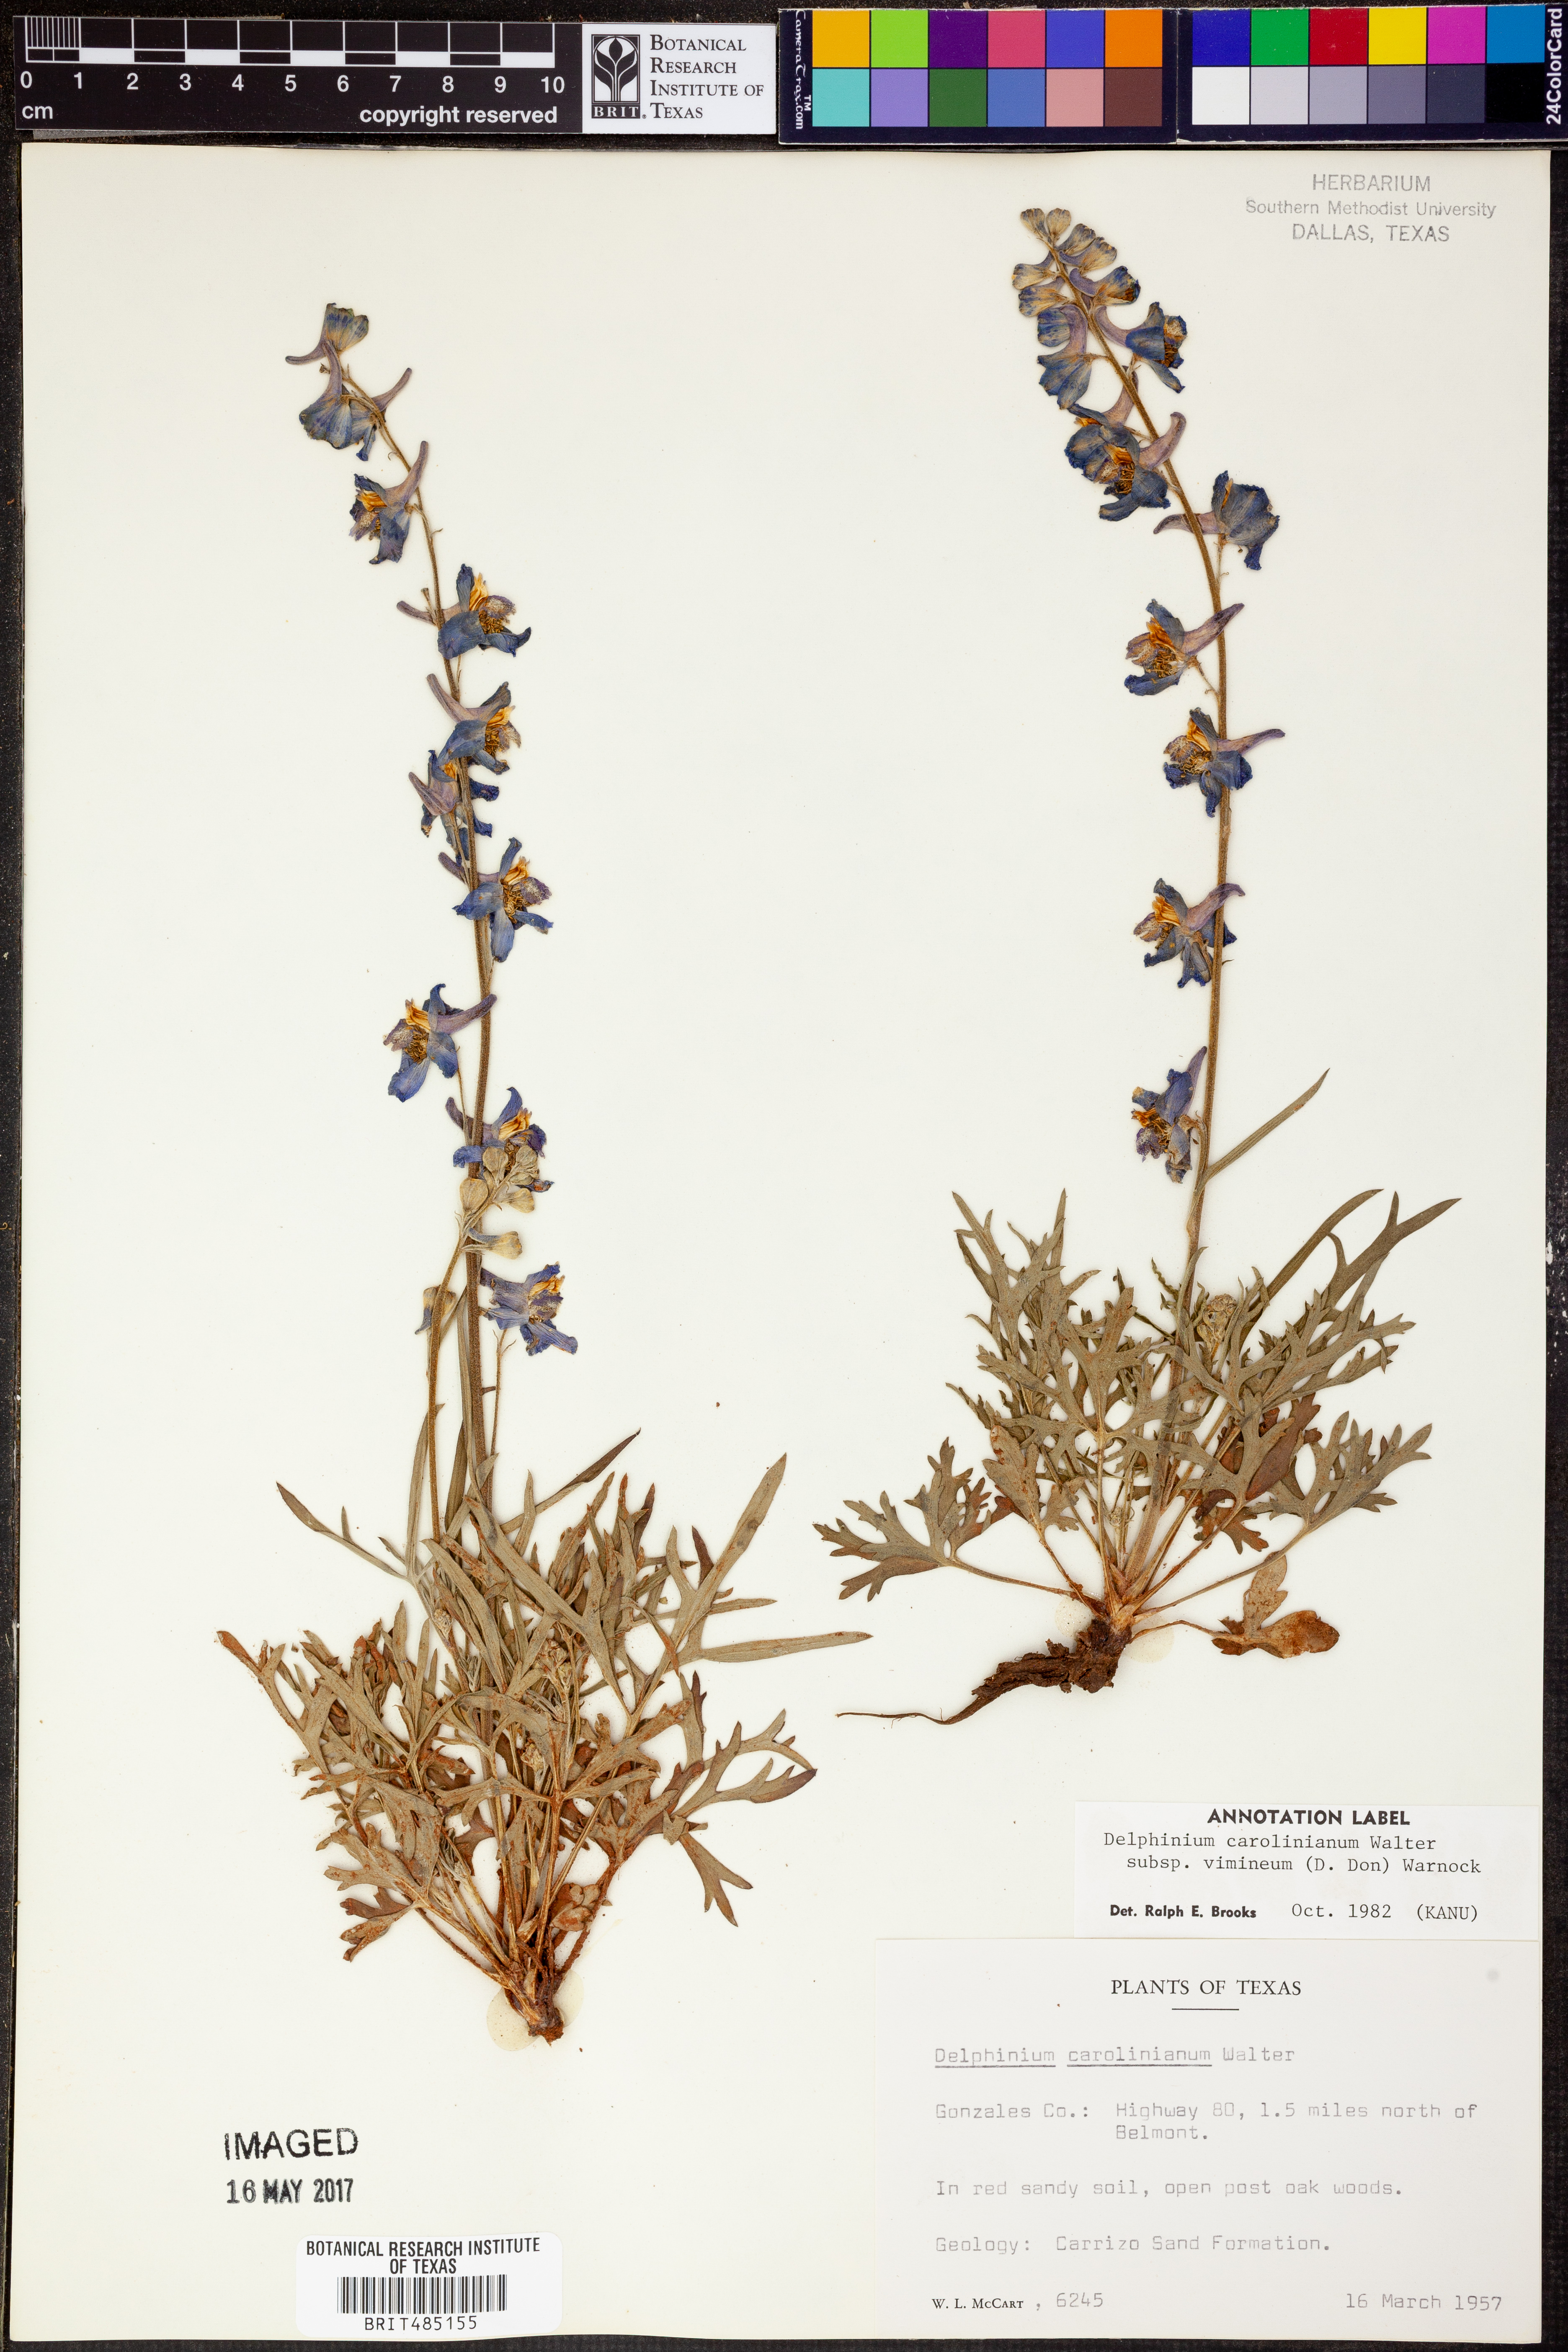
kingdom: Plantae
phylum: Tracheophyta
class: Magnoliopsida
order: Ranunculales
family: Ranunculaceae
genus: Delphinium
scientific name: Delphinium carolinianum
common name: Carolina larkspur
